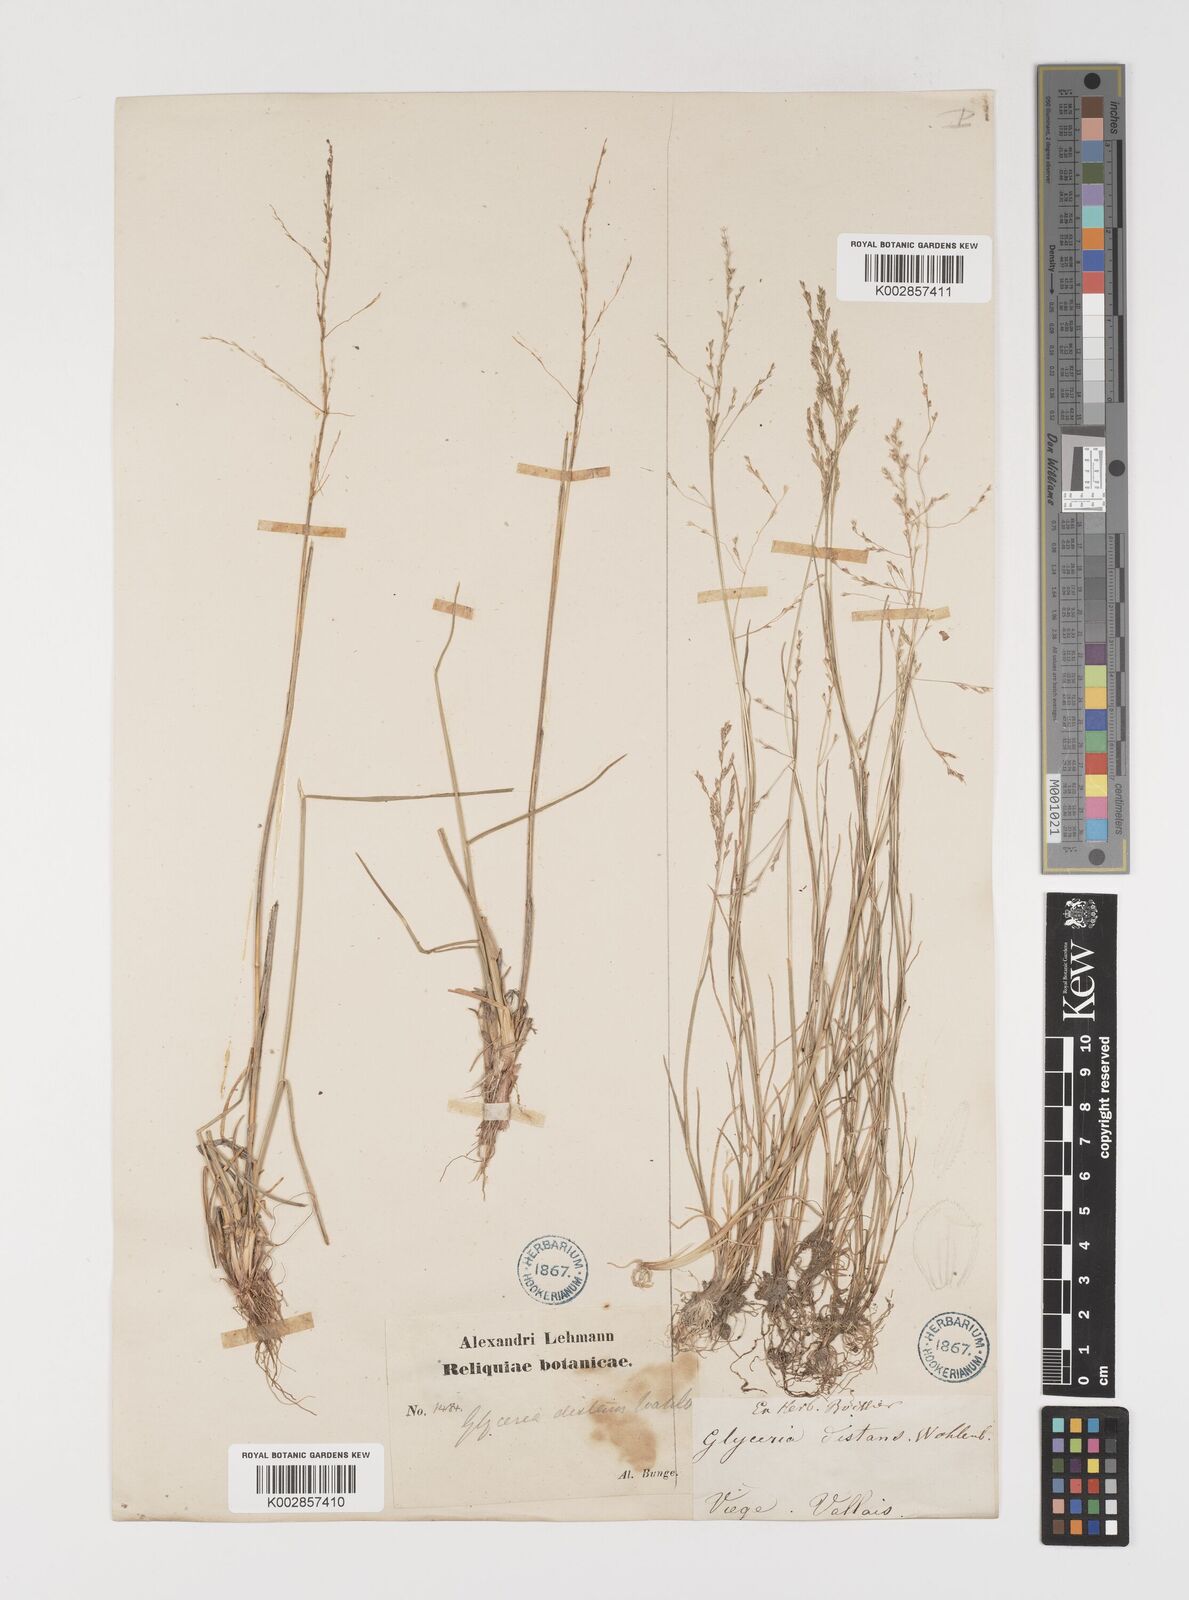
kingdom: Plantae
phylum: Tracheophyta
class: Liliopsida
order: Poales
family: Poaceae
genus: Puccinellia
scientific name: Puccinellia distans
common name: Weeping alkaligrass
